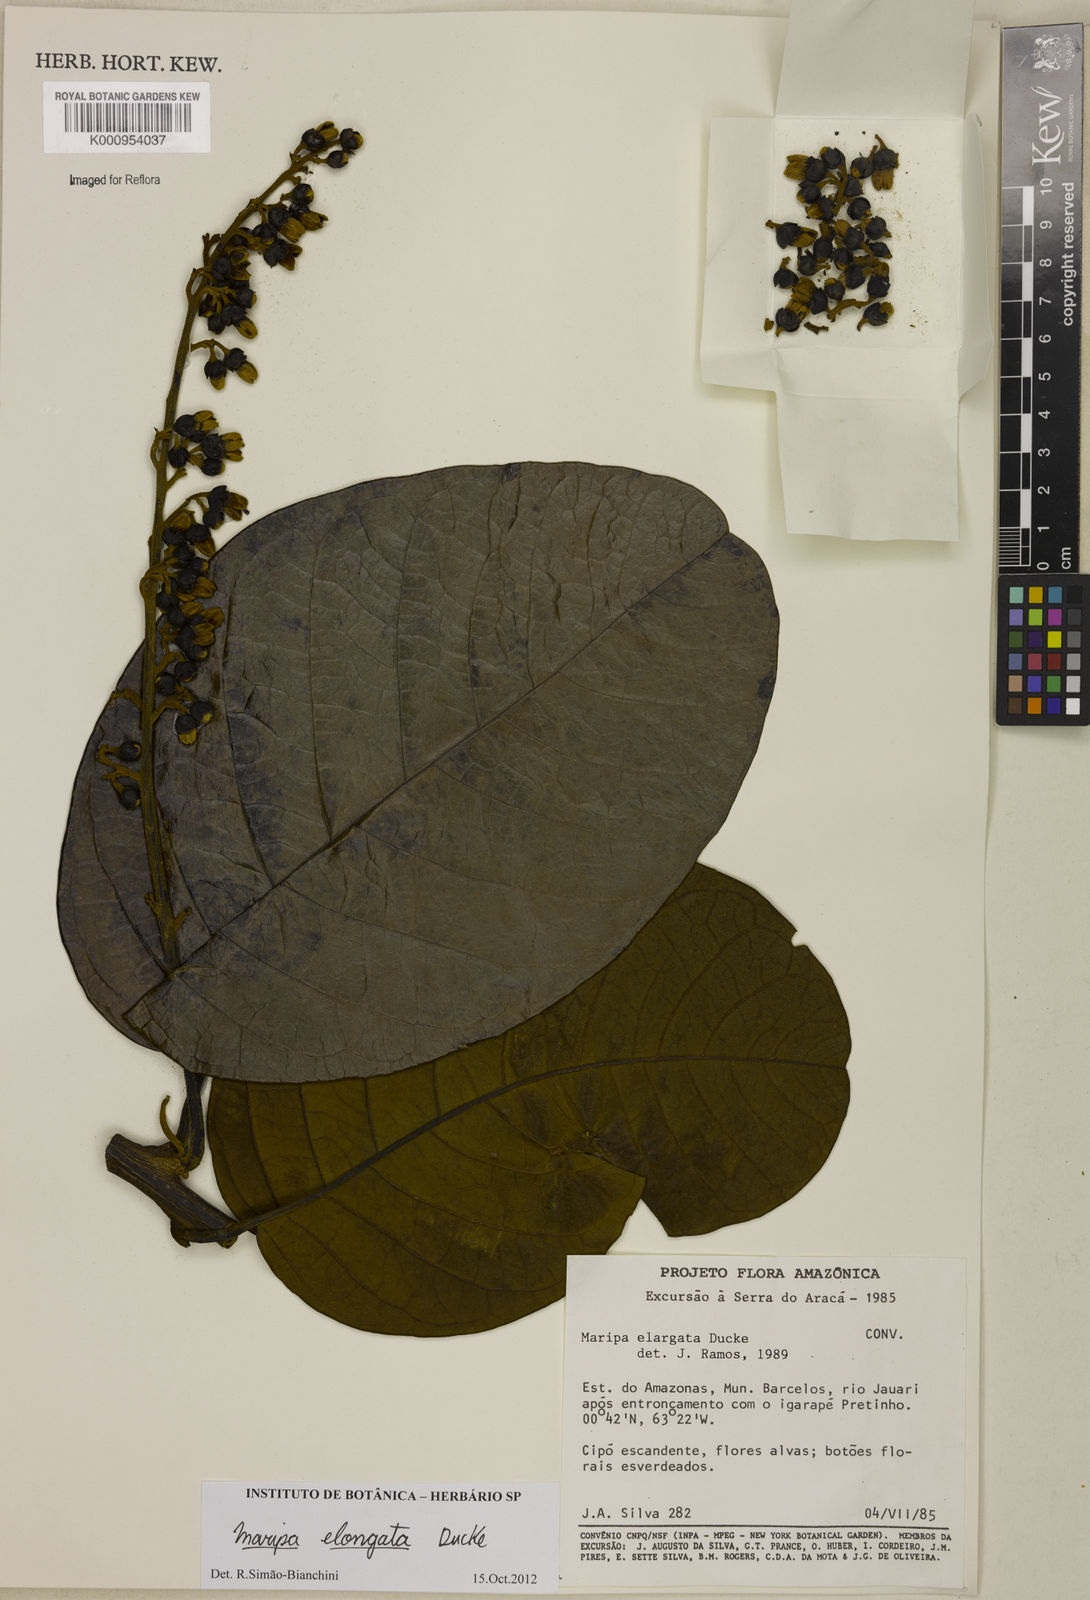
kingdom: Plantae
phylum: Tracheophyta
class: Magnoliopsida
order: Solanales
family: Convolvulaceae
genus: Maripa
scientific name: Maripa elongata
